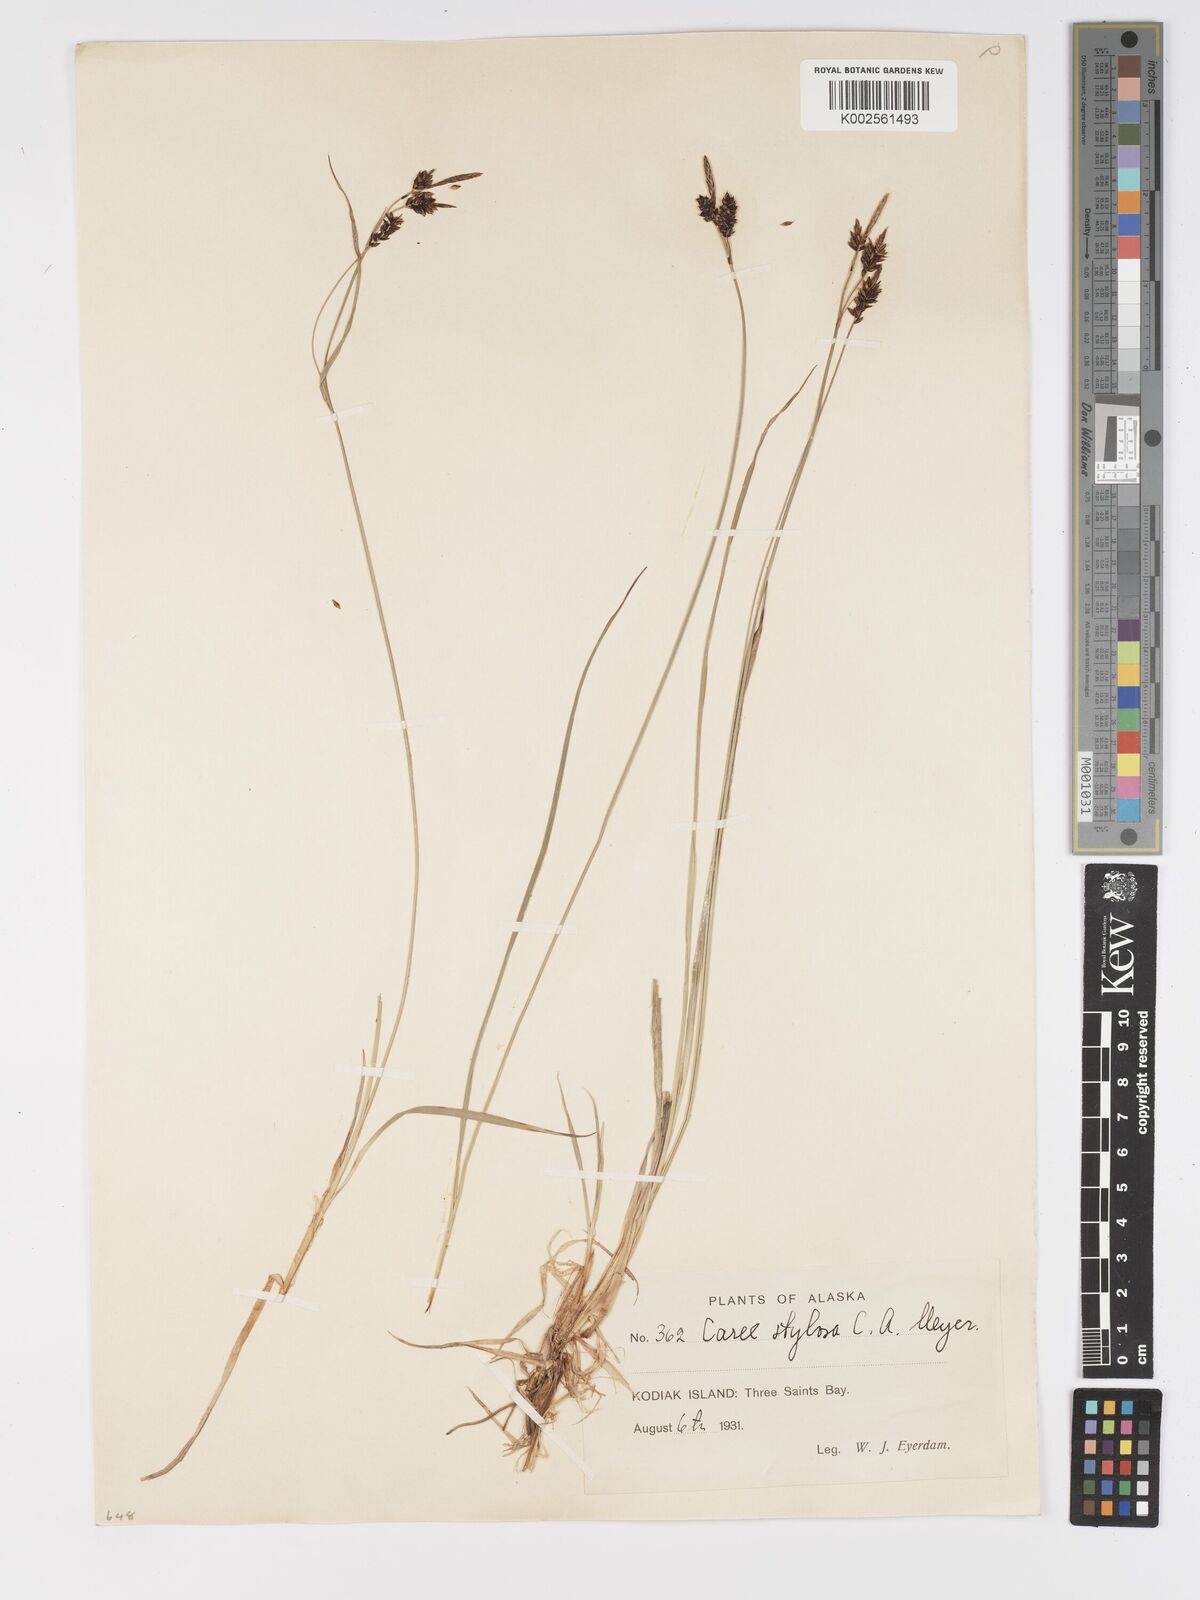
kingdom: Plantae
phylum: Tracheophyta
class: Liliopsida
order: Poales
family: Cyperaceae
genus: Carex
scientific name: Carex stylosa
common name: Long-styled sedge
